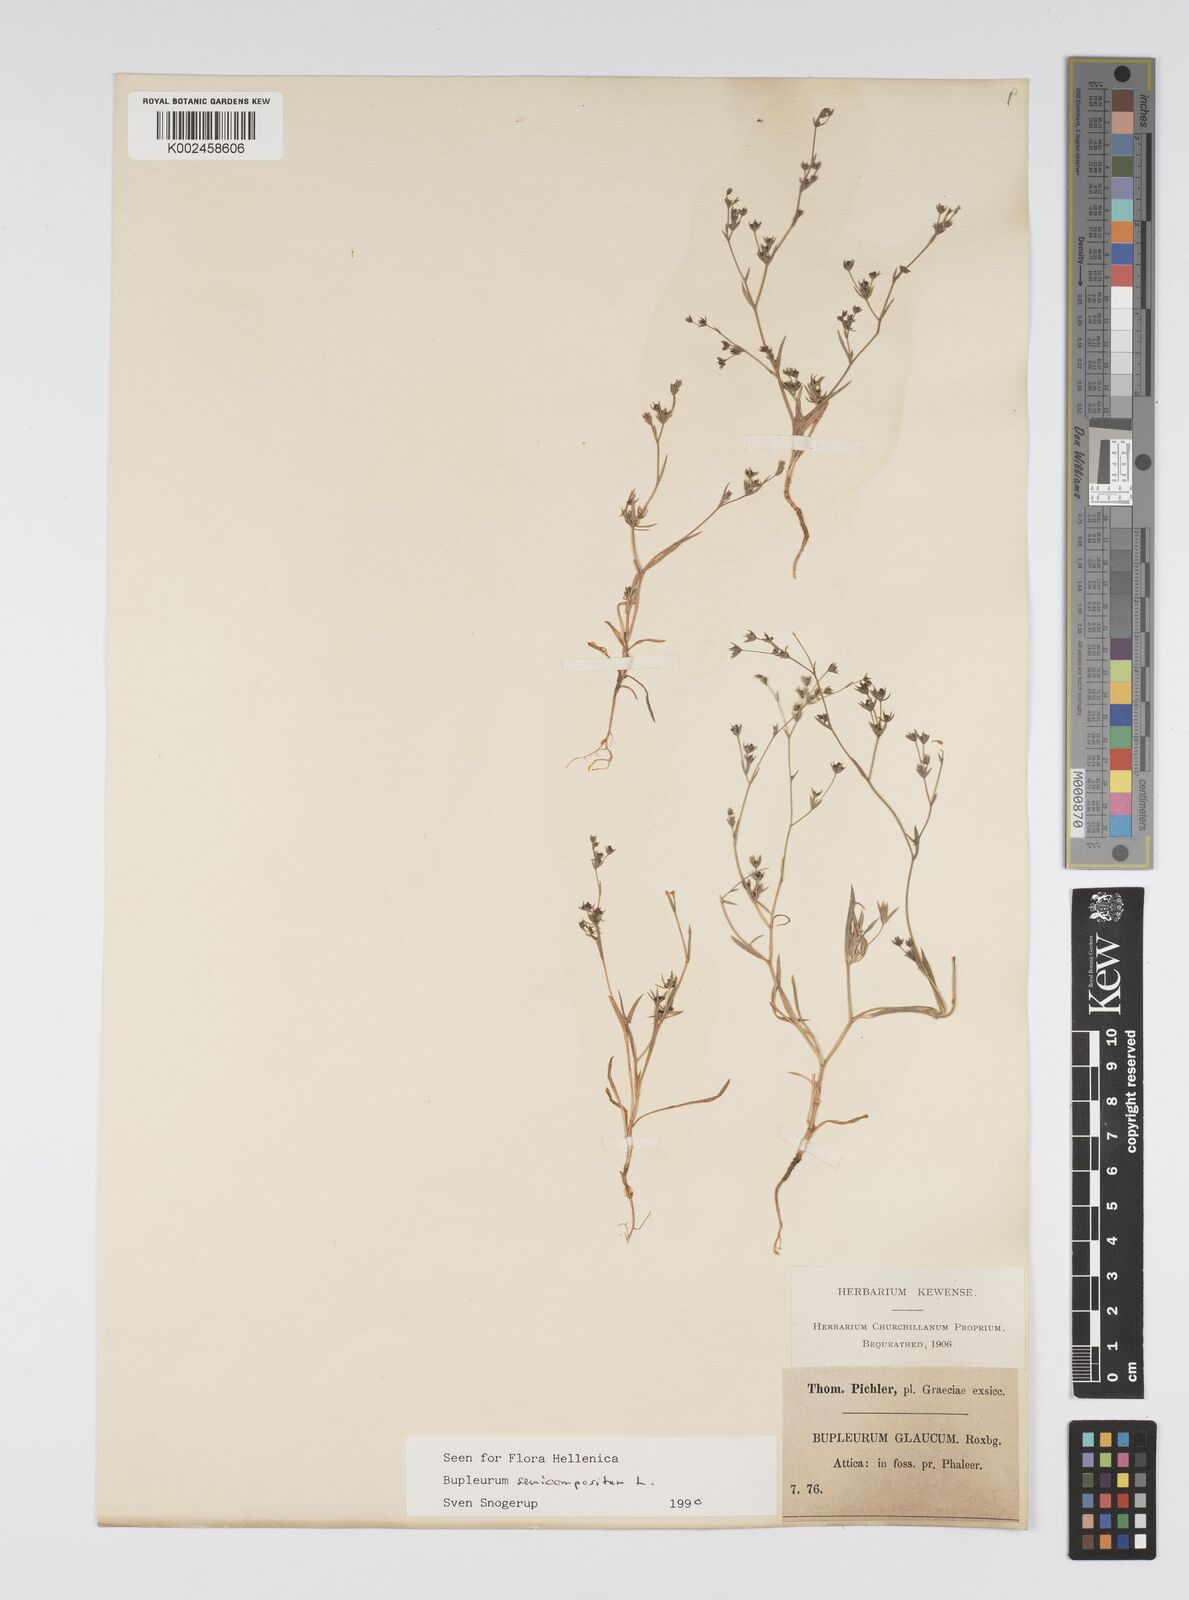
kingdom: Plantae
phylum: Tracheophyta
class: Magnoliopsida
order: Apiales
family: Apiaceae
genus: Bupleurum
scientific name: Bupleurum semicompositum
